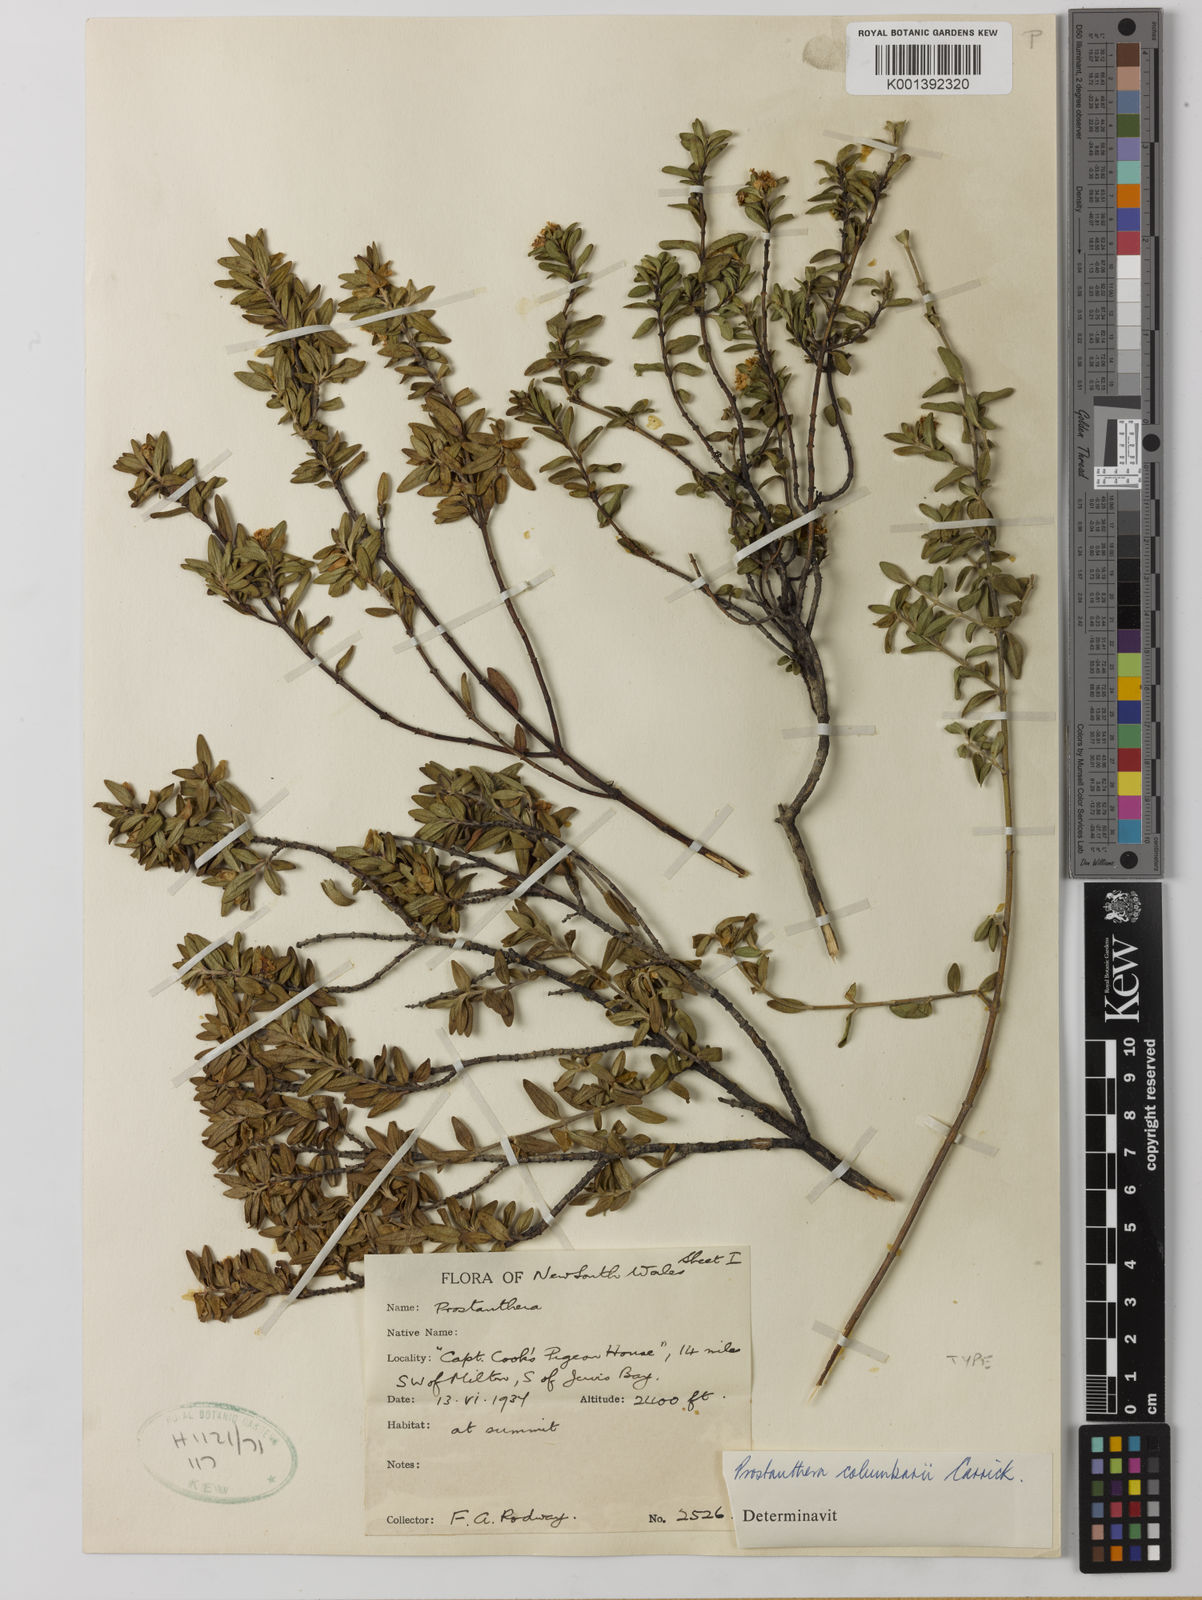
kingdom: Plantae
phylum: Tracheophyta
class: Magnoliopsida
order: Lamiales
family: Lamiaceae
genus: Prostanthera
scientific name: Prostanthera
